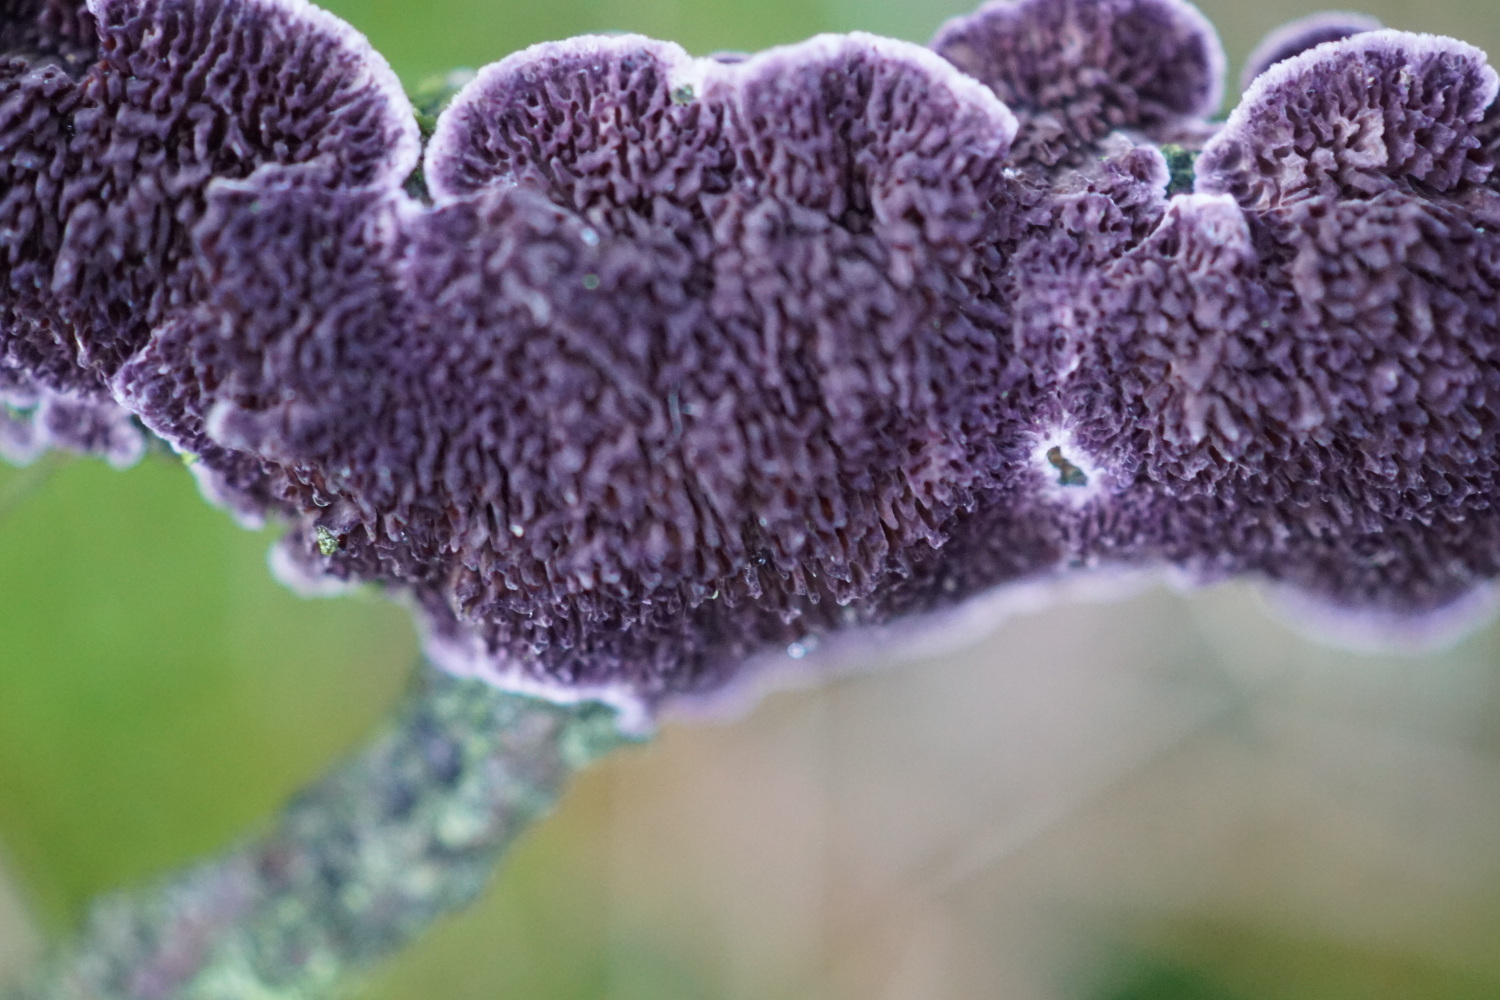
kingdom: Fungi
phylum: Basidiomycota
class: Agaricomycetes
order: Hymenochaetales
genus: Trichaptum
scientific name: Trichaptum fuscoviolaceum
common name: tandet violporesvamp
